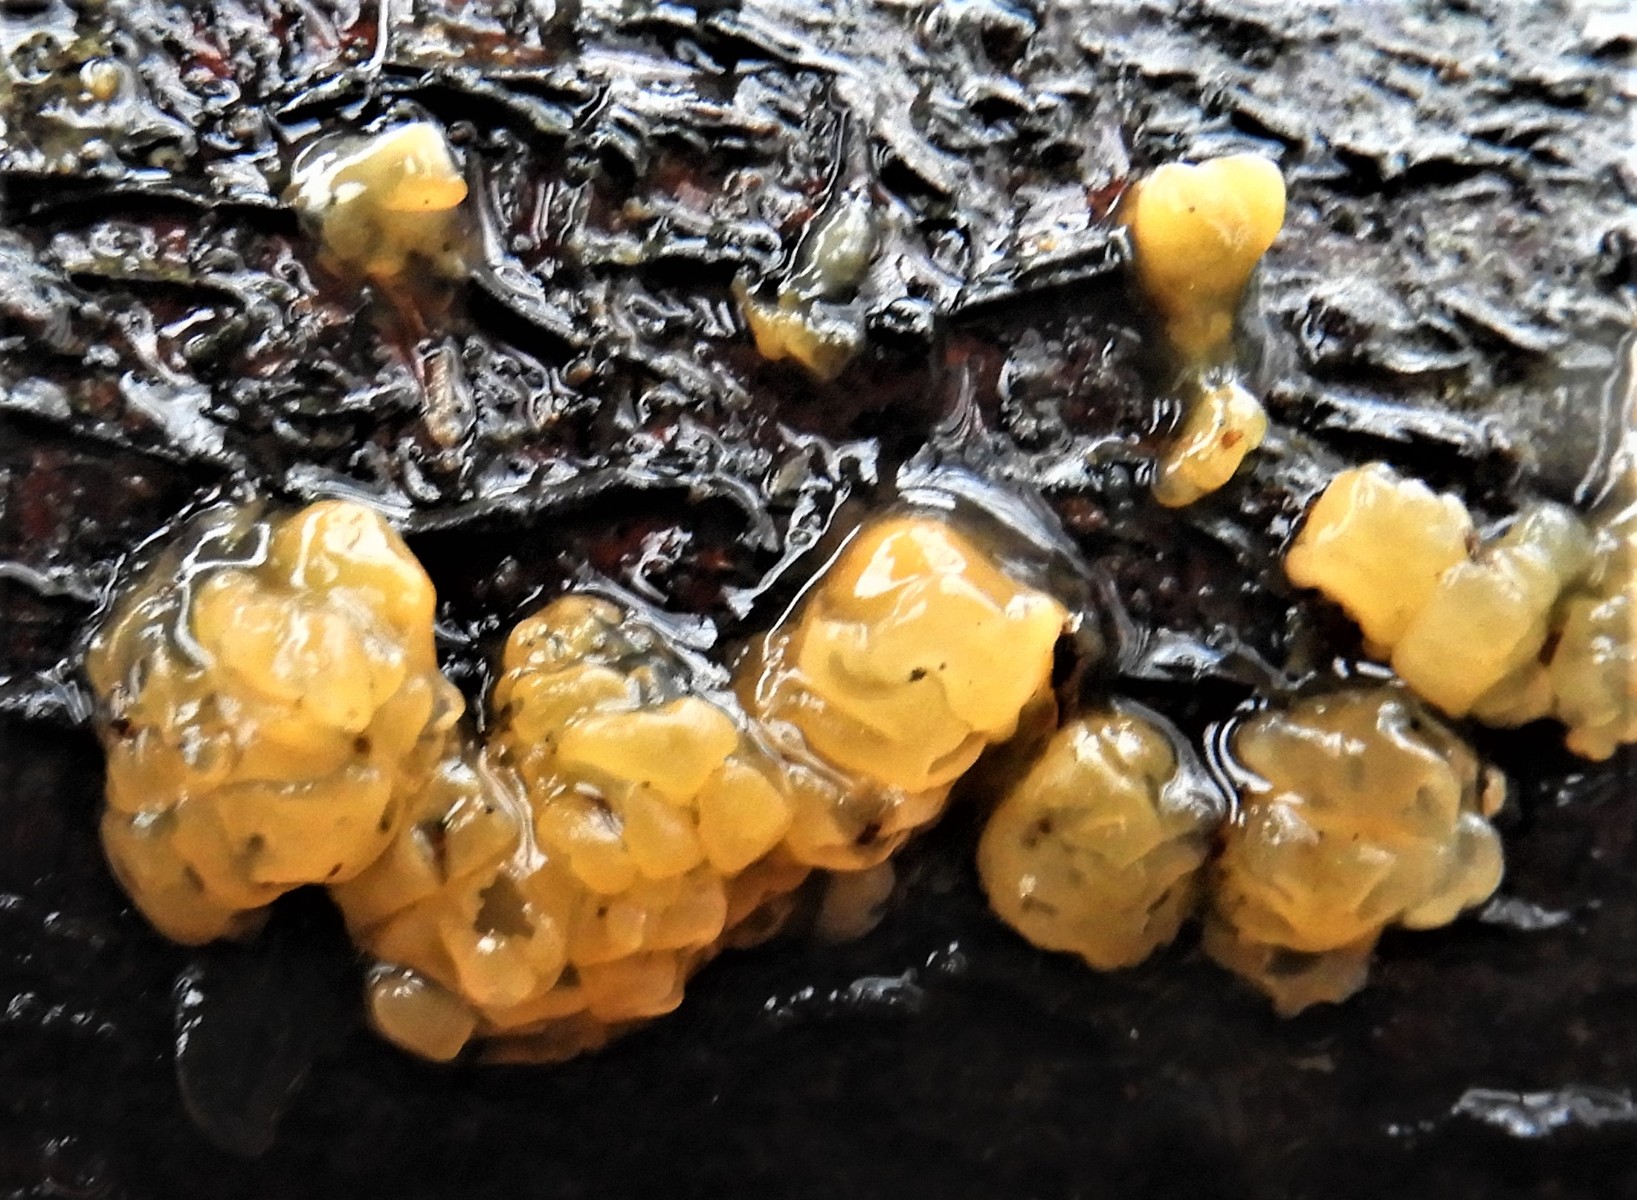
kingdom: Fungi
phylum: Basidiomycota
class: Dacrymycetes
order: Dacrymycetales
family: Dacrymycetaceae
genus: Dacrymyces
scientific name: Dacrymyces lacrymalis
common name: rynket tåresvamp
